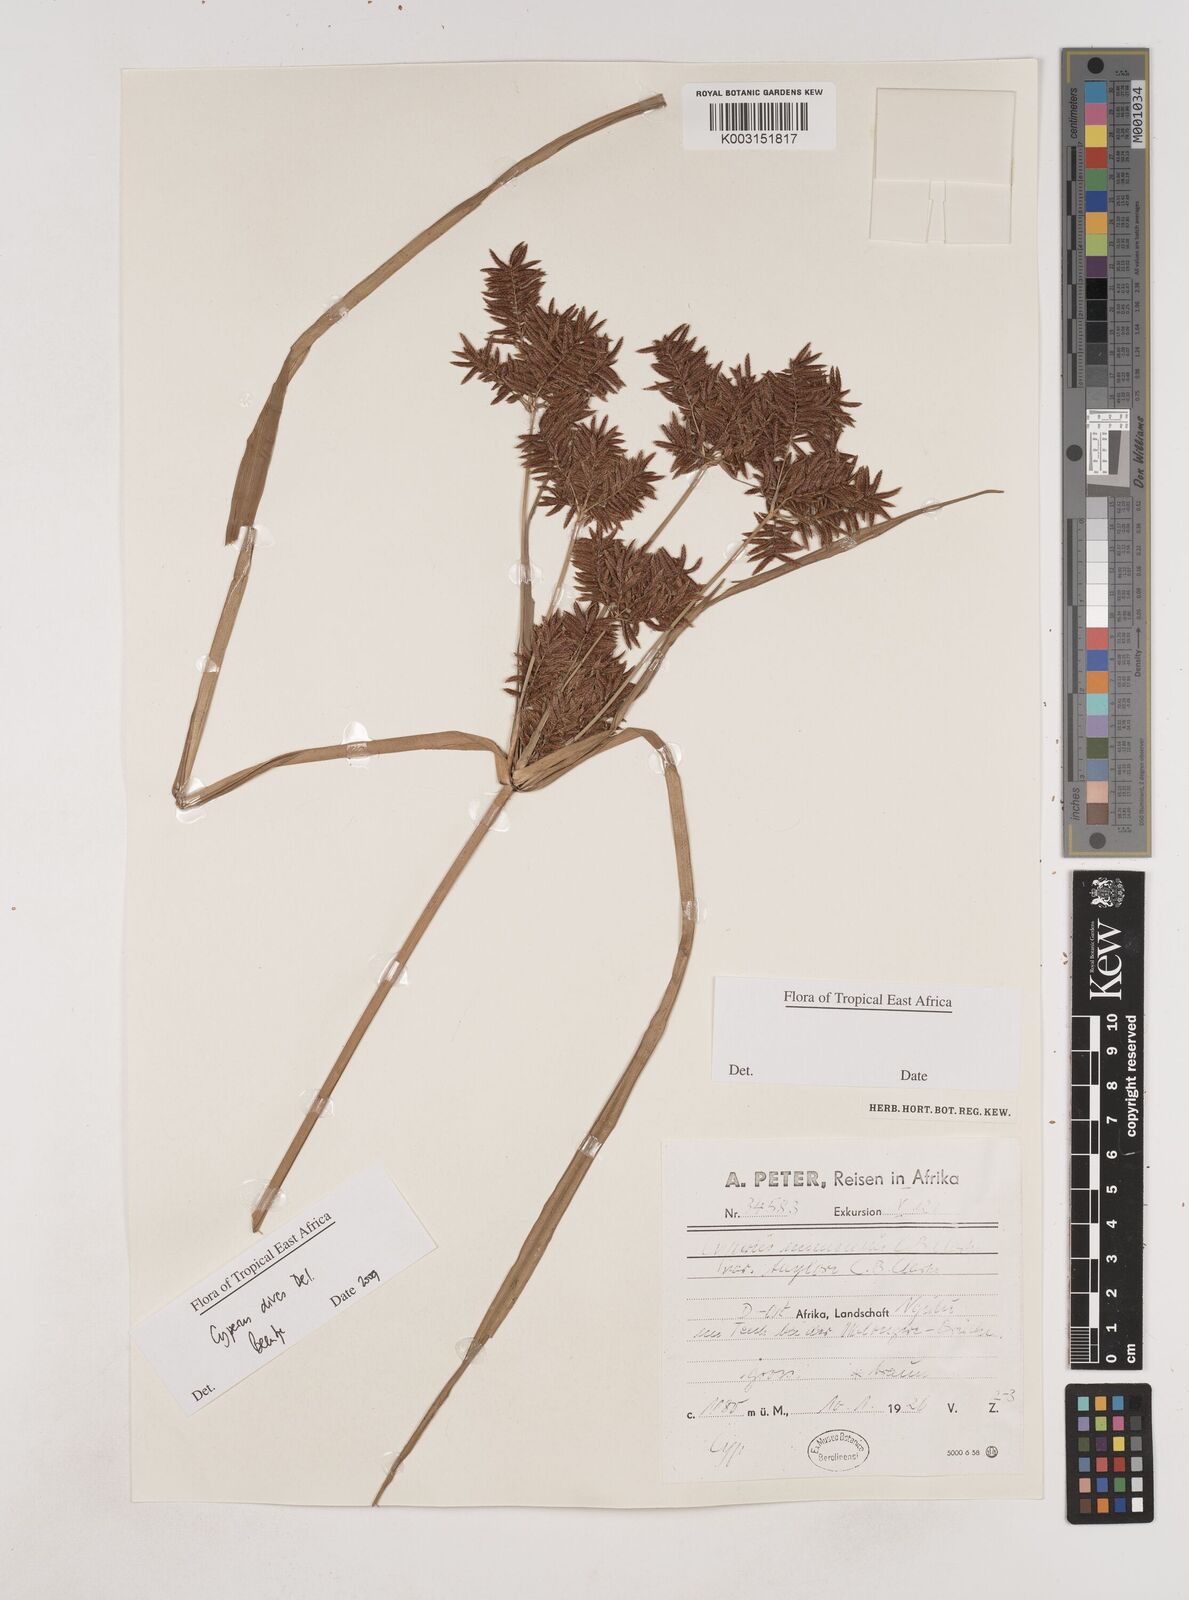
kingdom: Plantae
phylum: Tracheophyta
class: Liliopsida
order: Poales
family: Cyperaceae
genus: Cyperus
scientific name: Cyperus dives
